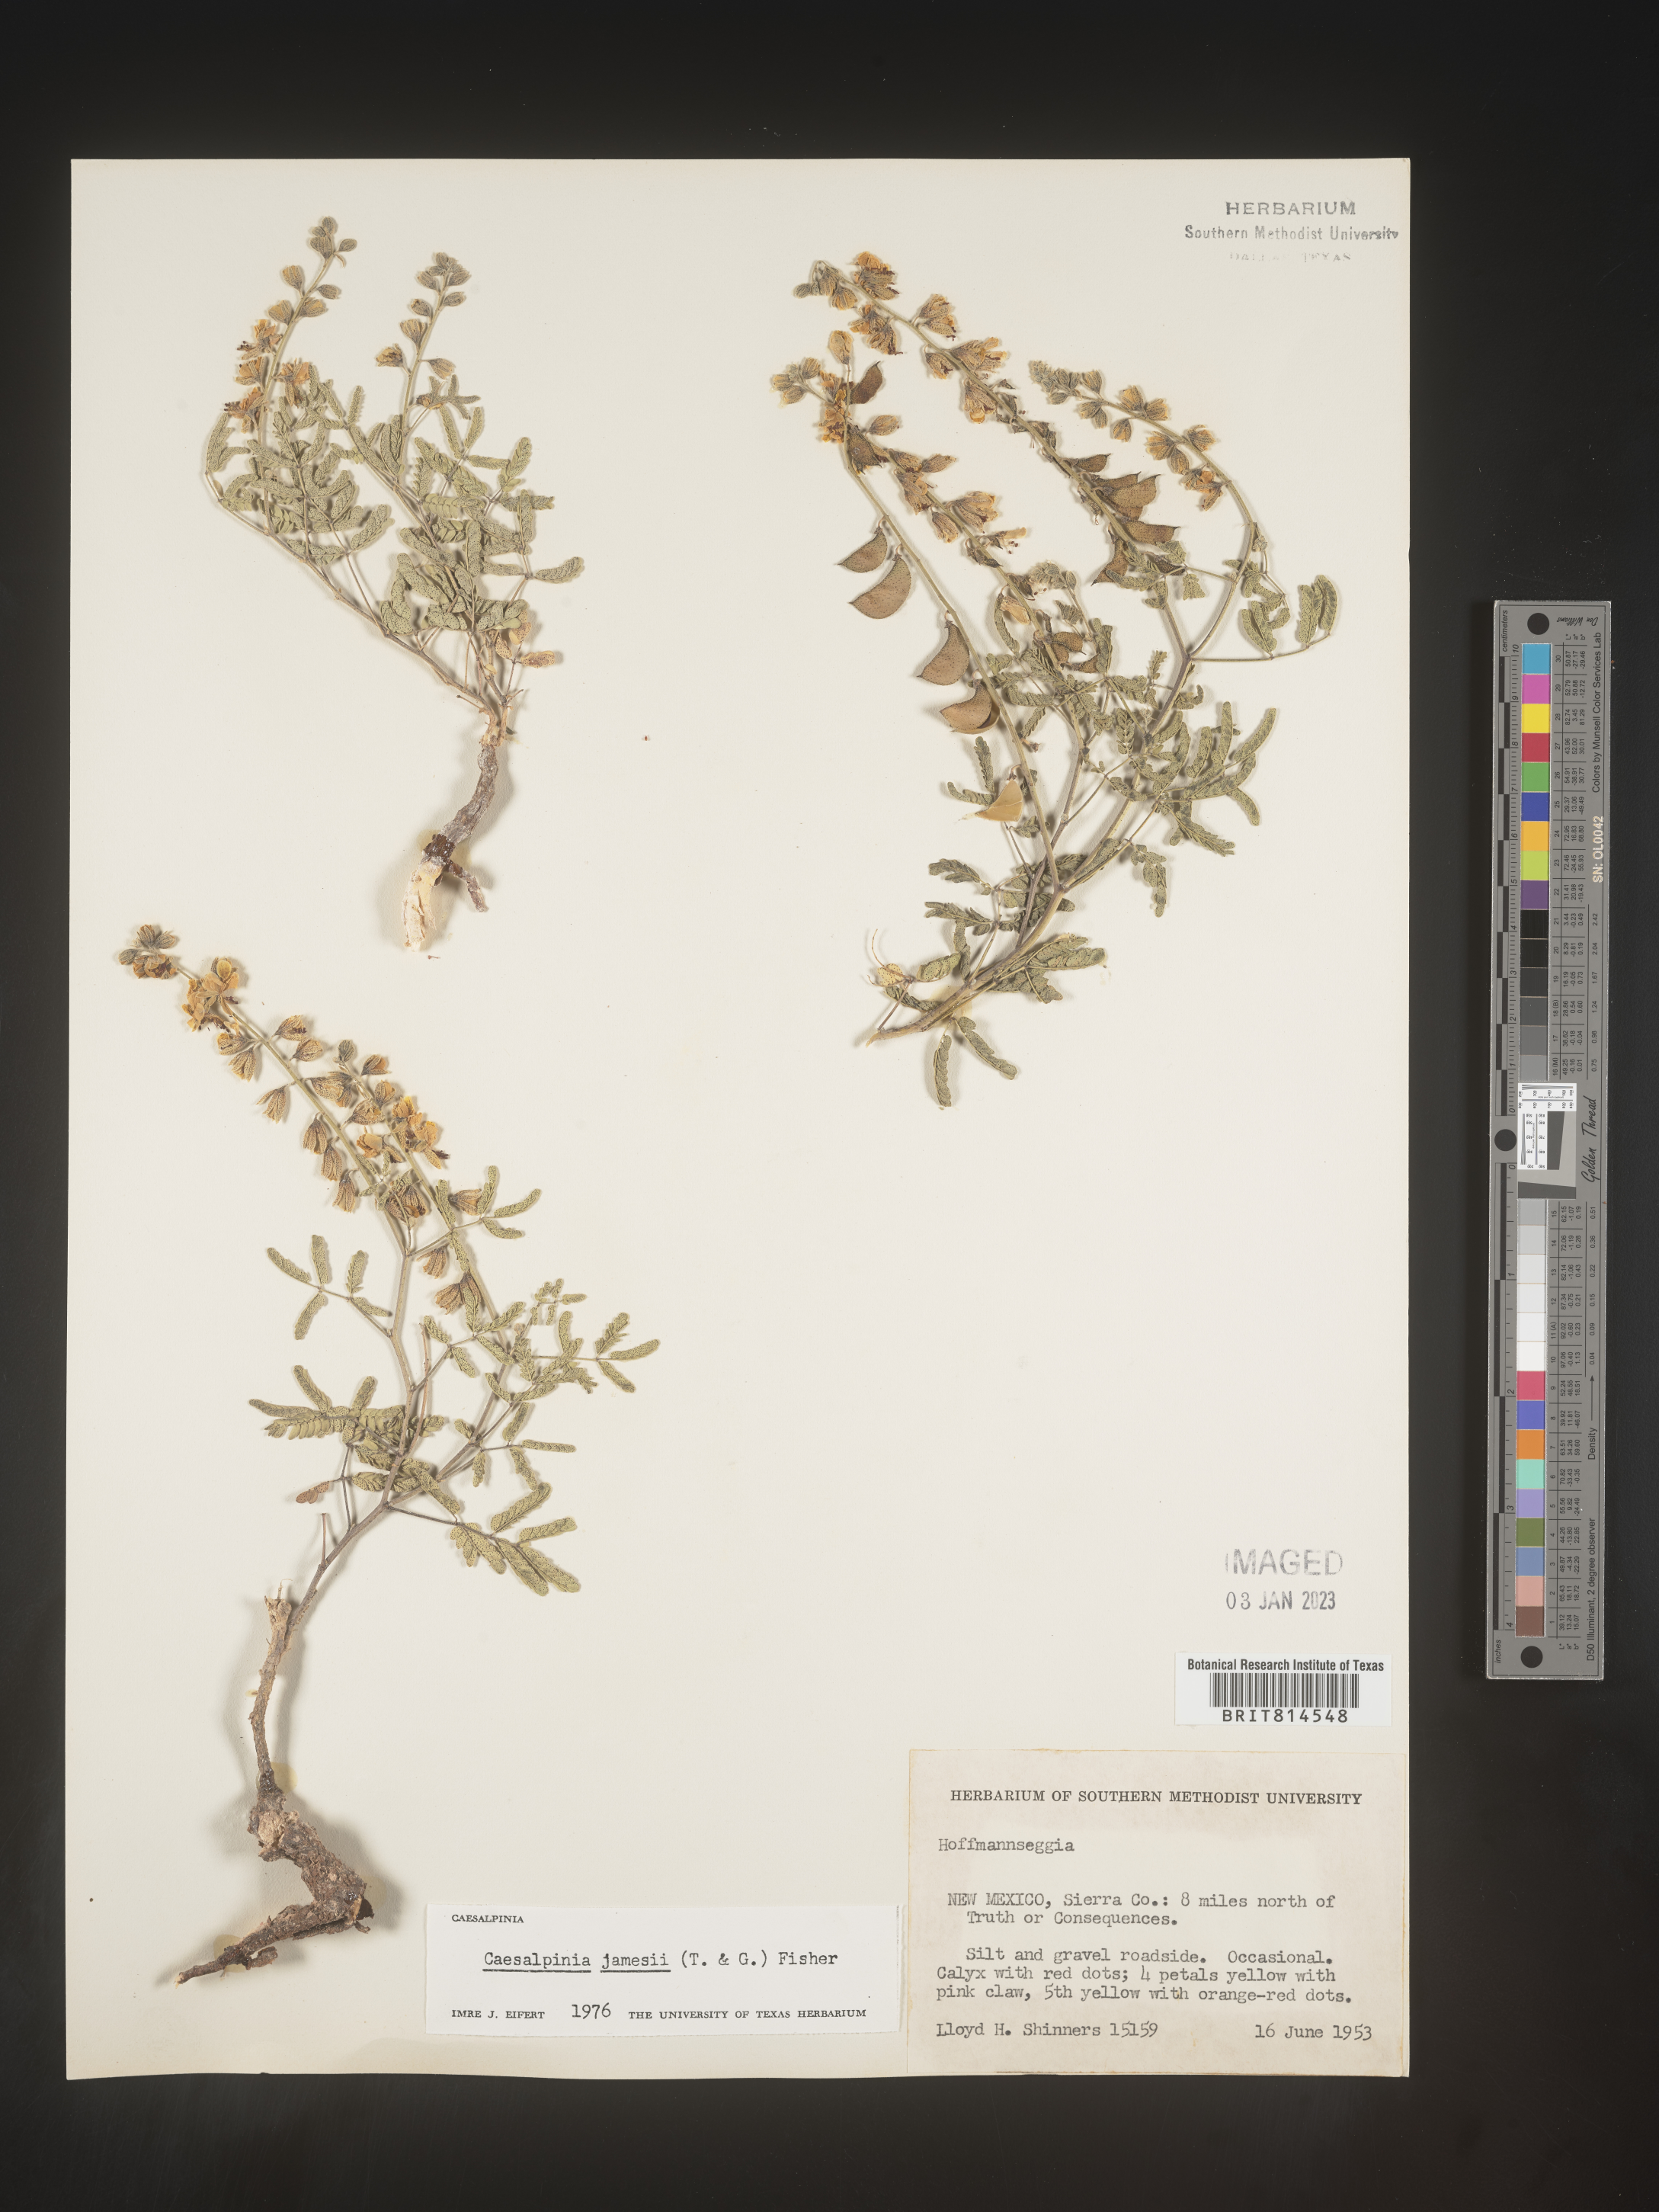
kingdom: Plantae
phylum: Tracheophyta
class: Magnoliopsida
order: Fabales
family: Fabaceae
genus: Caesalpinia
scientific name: Caesalpinia
